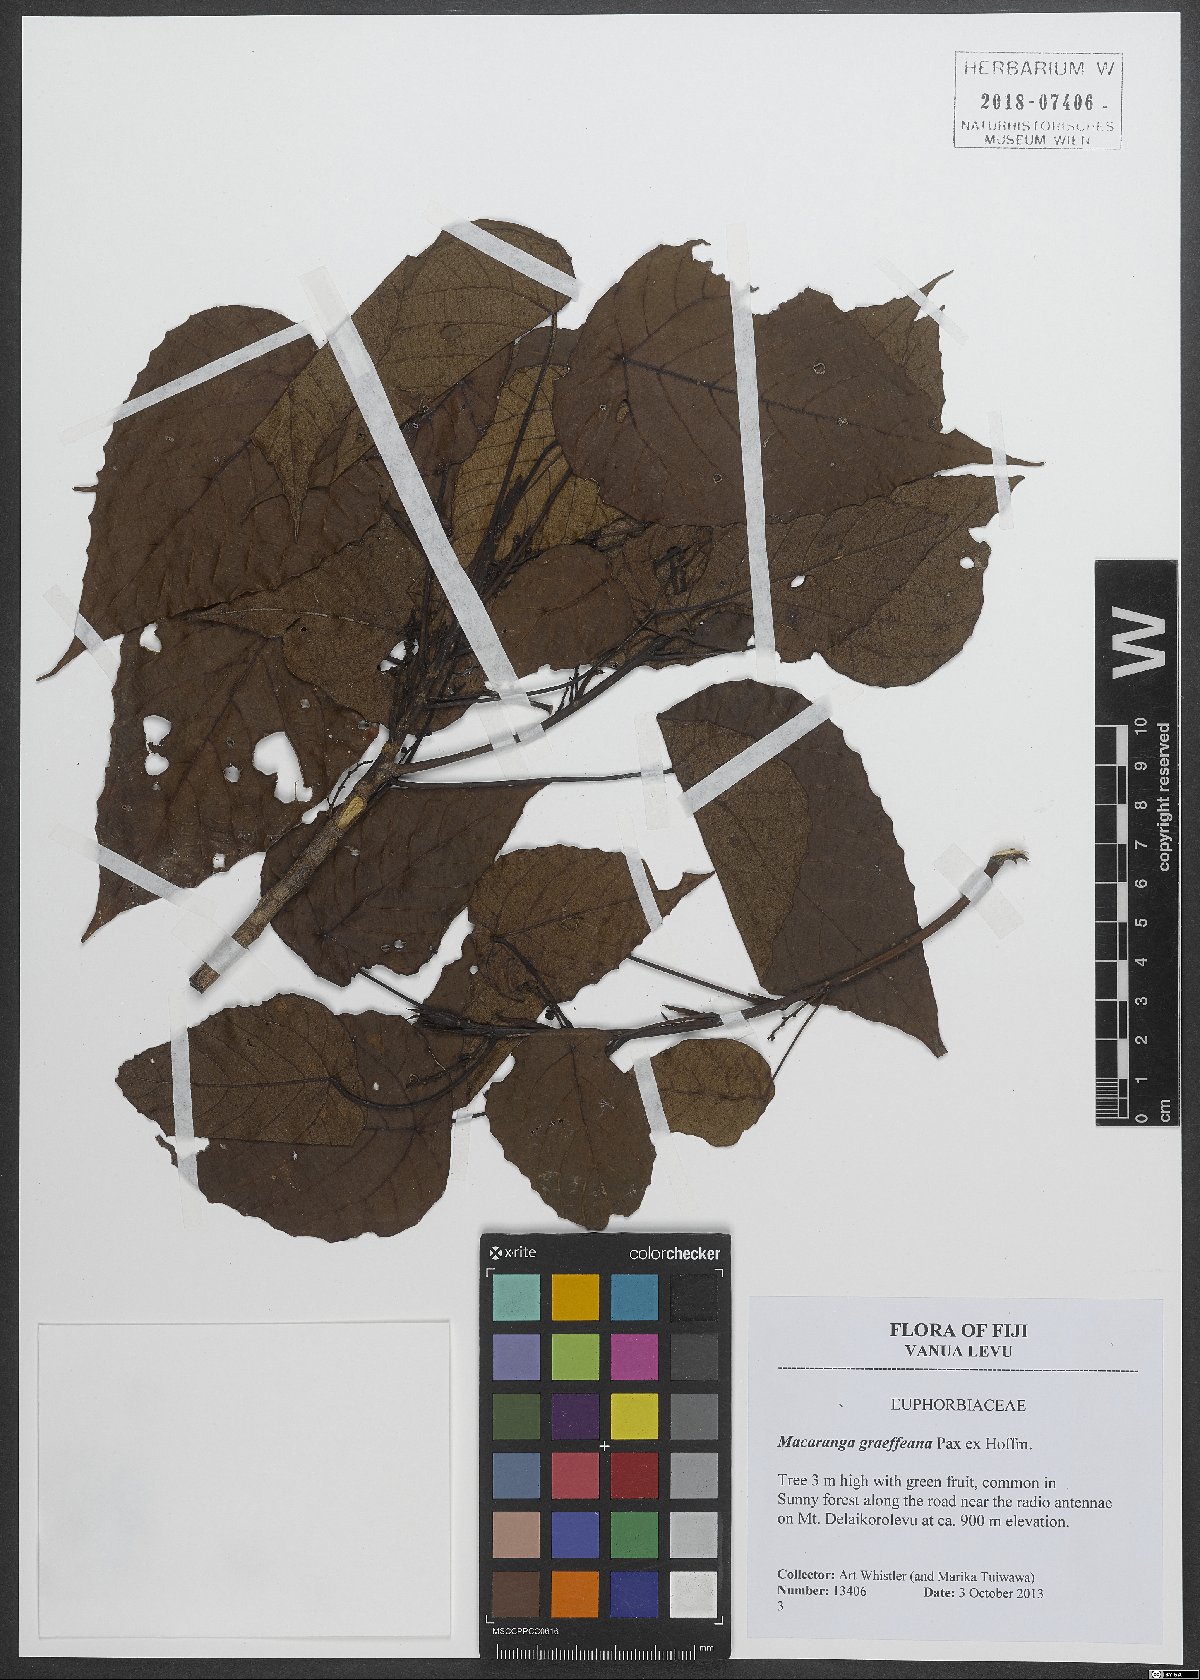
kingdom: Plantae
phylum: Tracheophyta
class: Magnoliopsida
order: Malpighiales
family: Euphorbiaceae
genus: Macaranga
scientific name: Macaranga graeffeana
